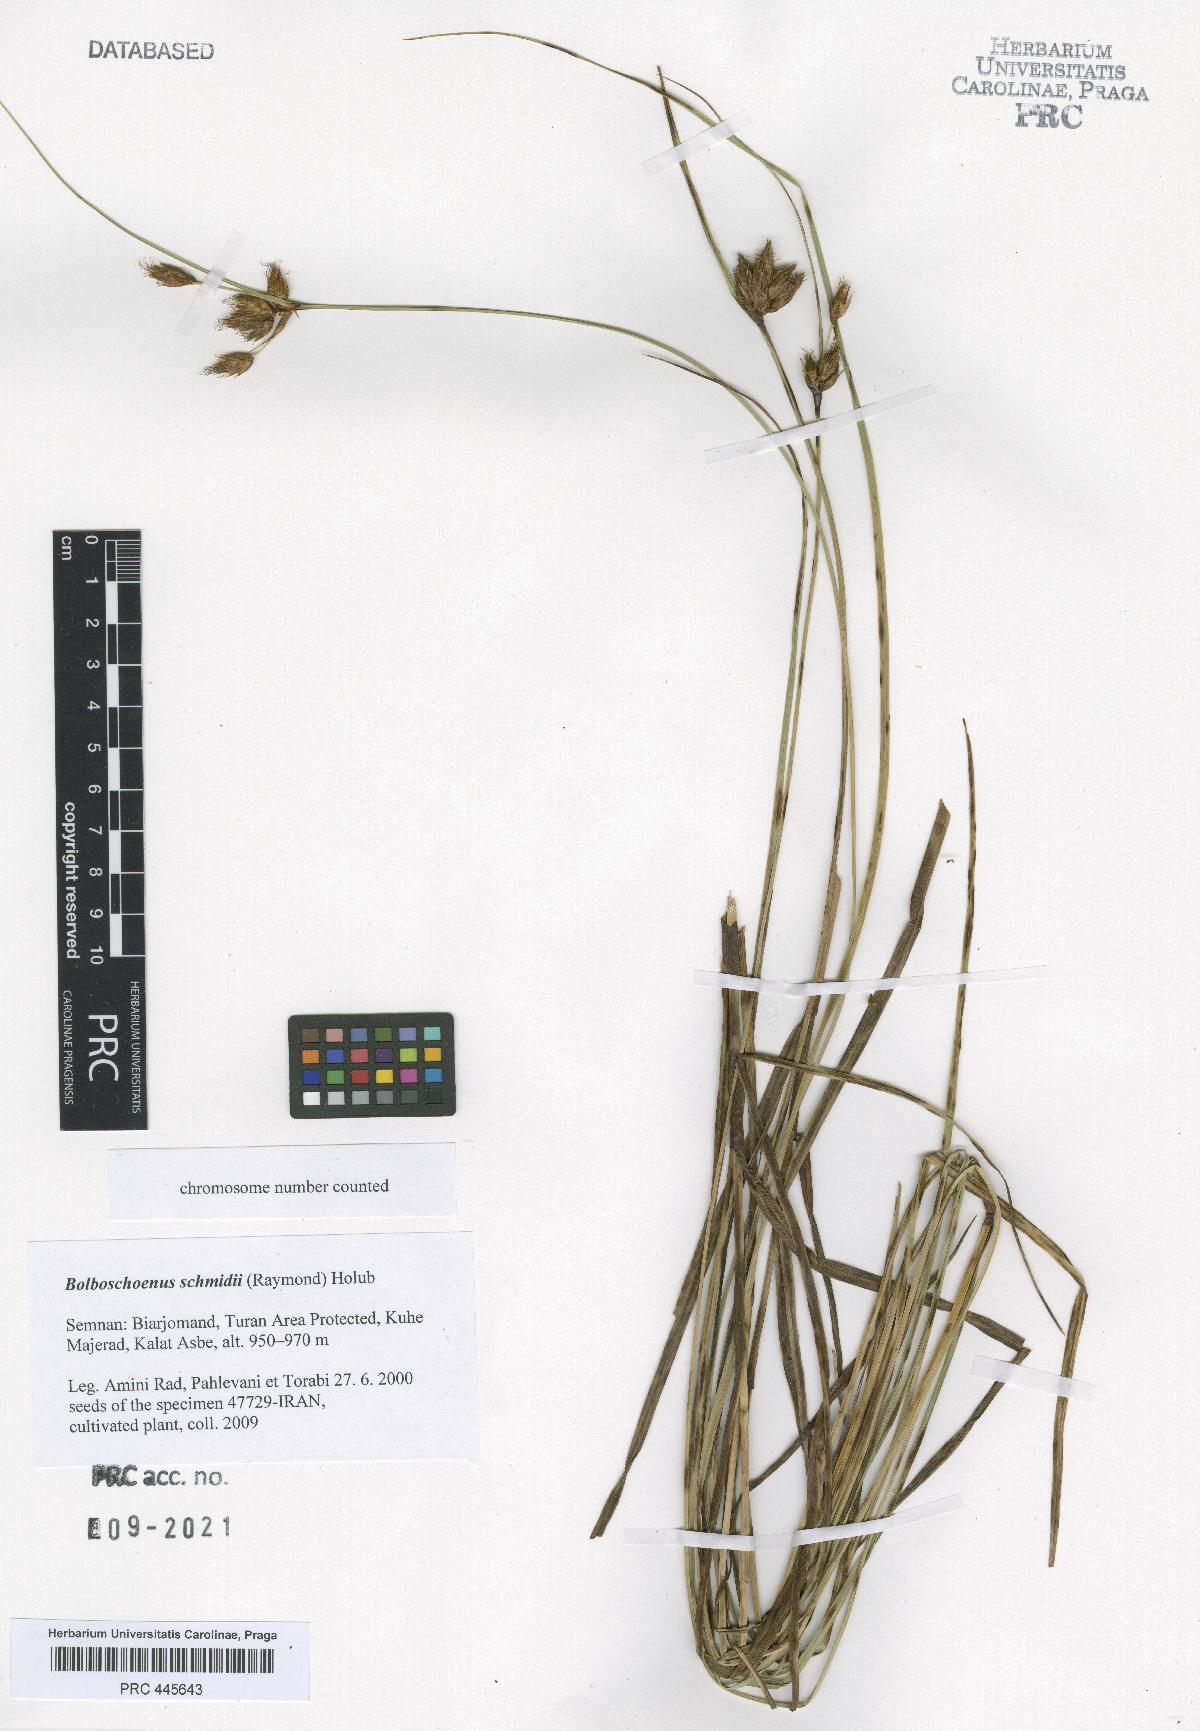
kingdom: Plantae
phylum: Tracheophyta
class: Liliopsida
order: Poales
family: Cyperaceae
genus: Bolboschoenus
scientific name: Bolboschoenus schmidii
